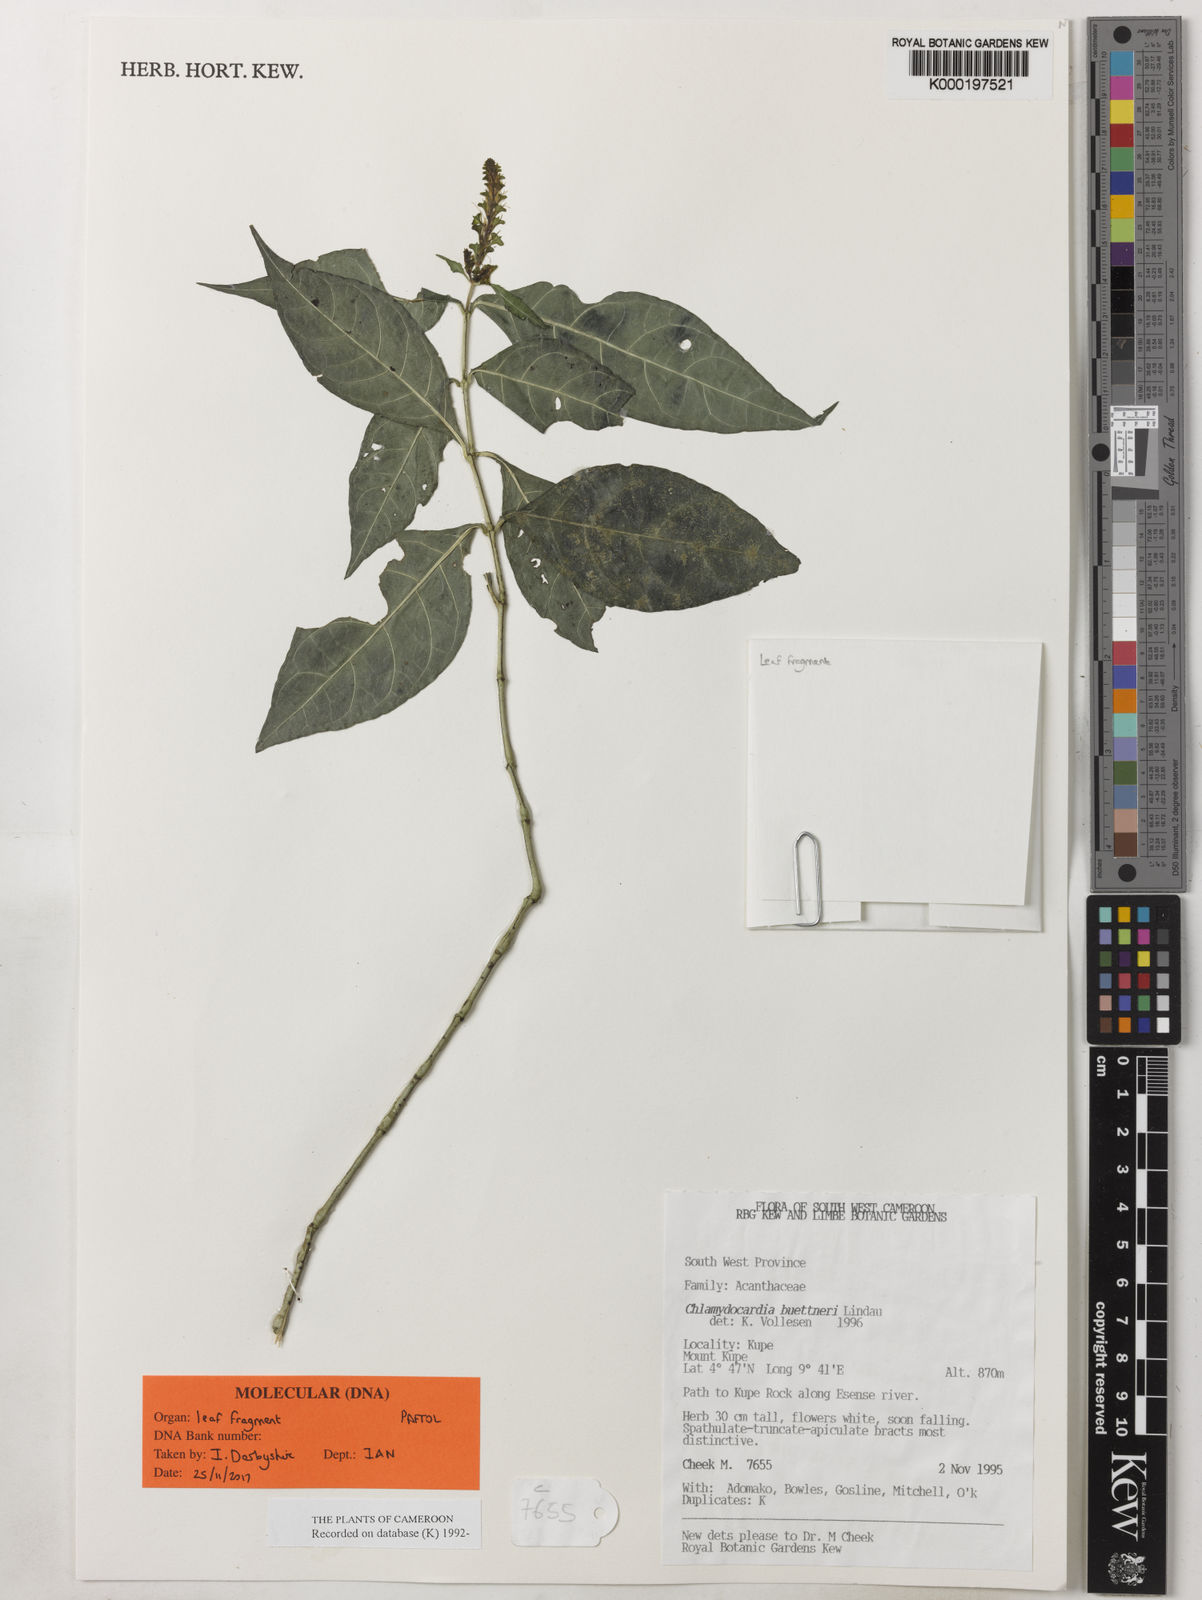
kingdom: Plantae
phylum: Tracheophyta
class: Magnoliopsida
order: Lamiales
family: Acanthaceae
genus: Chlamydocardia
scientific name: Chlamydocardia buettneri
